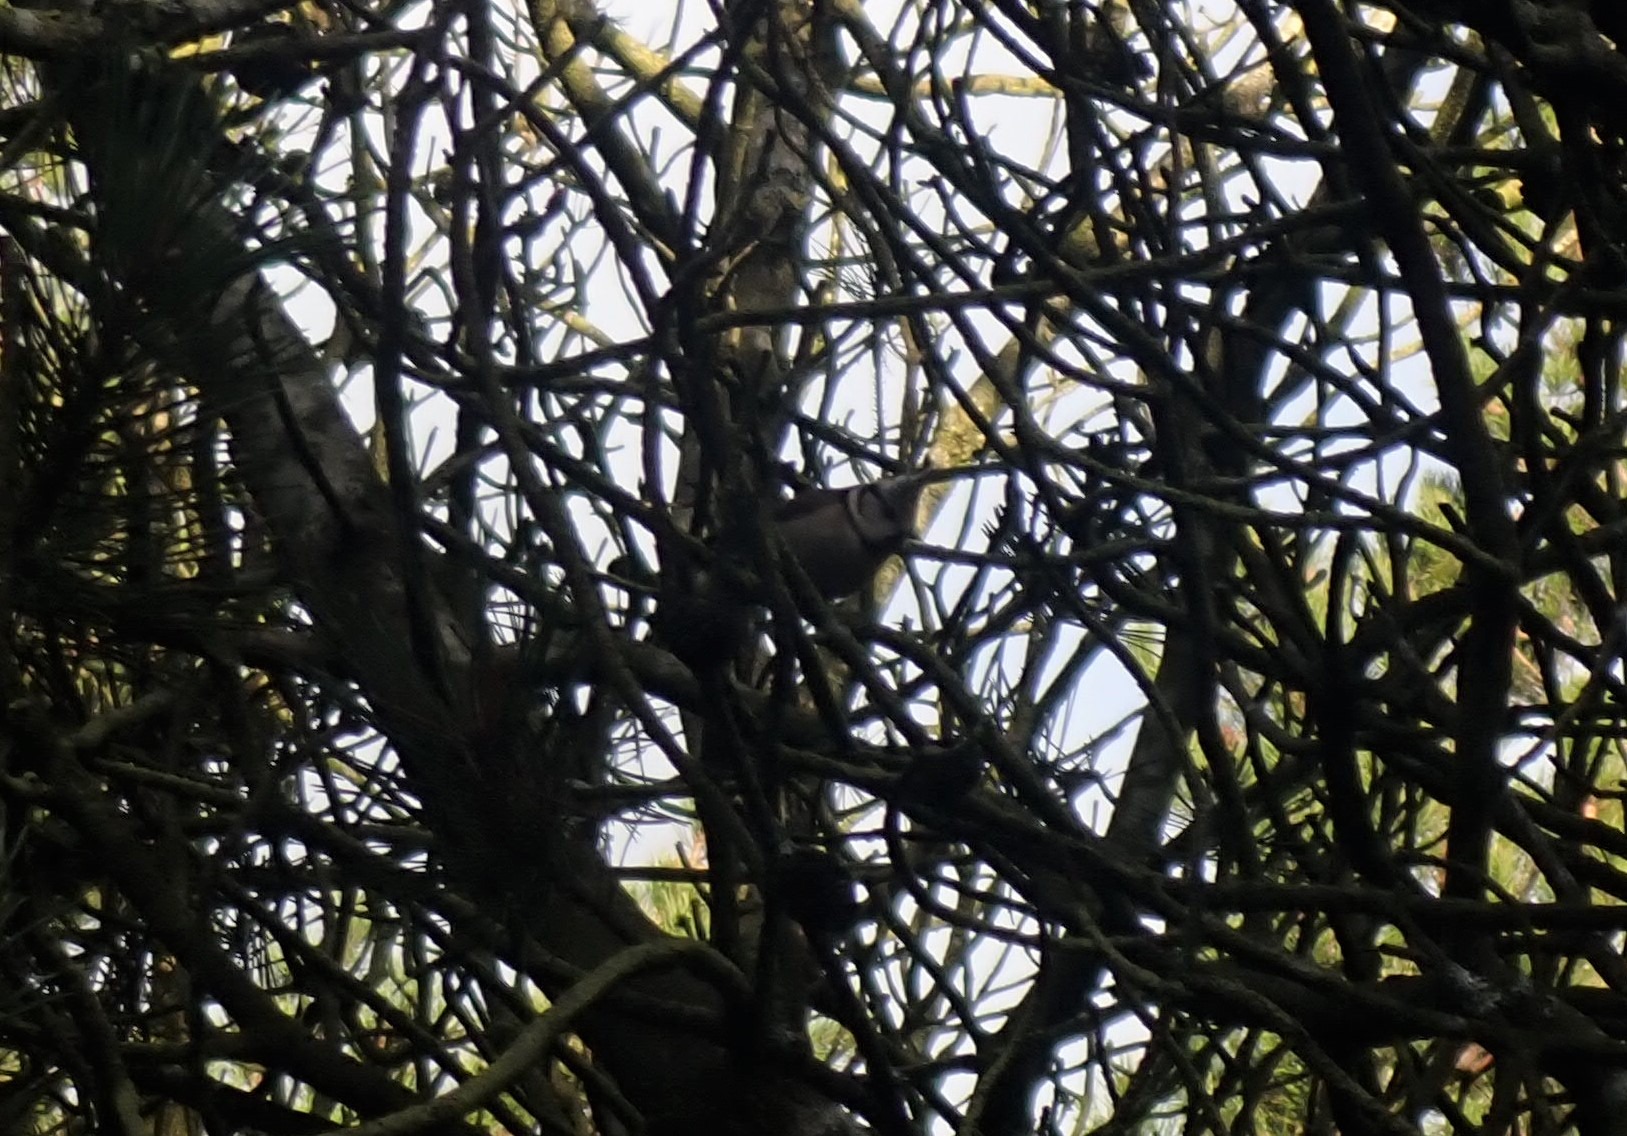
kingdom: Animalia
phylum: Chordata
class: Aves
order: Passeriformes
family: Paridae
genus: Lophophanes
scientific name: Lophophanes cristatus
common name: Topmejse
